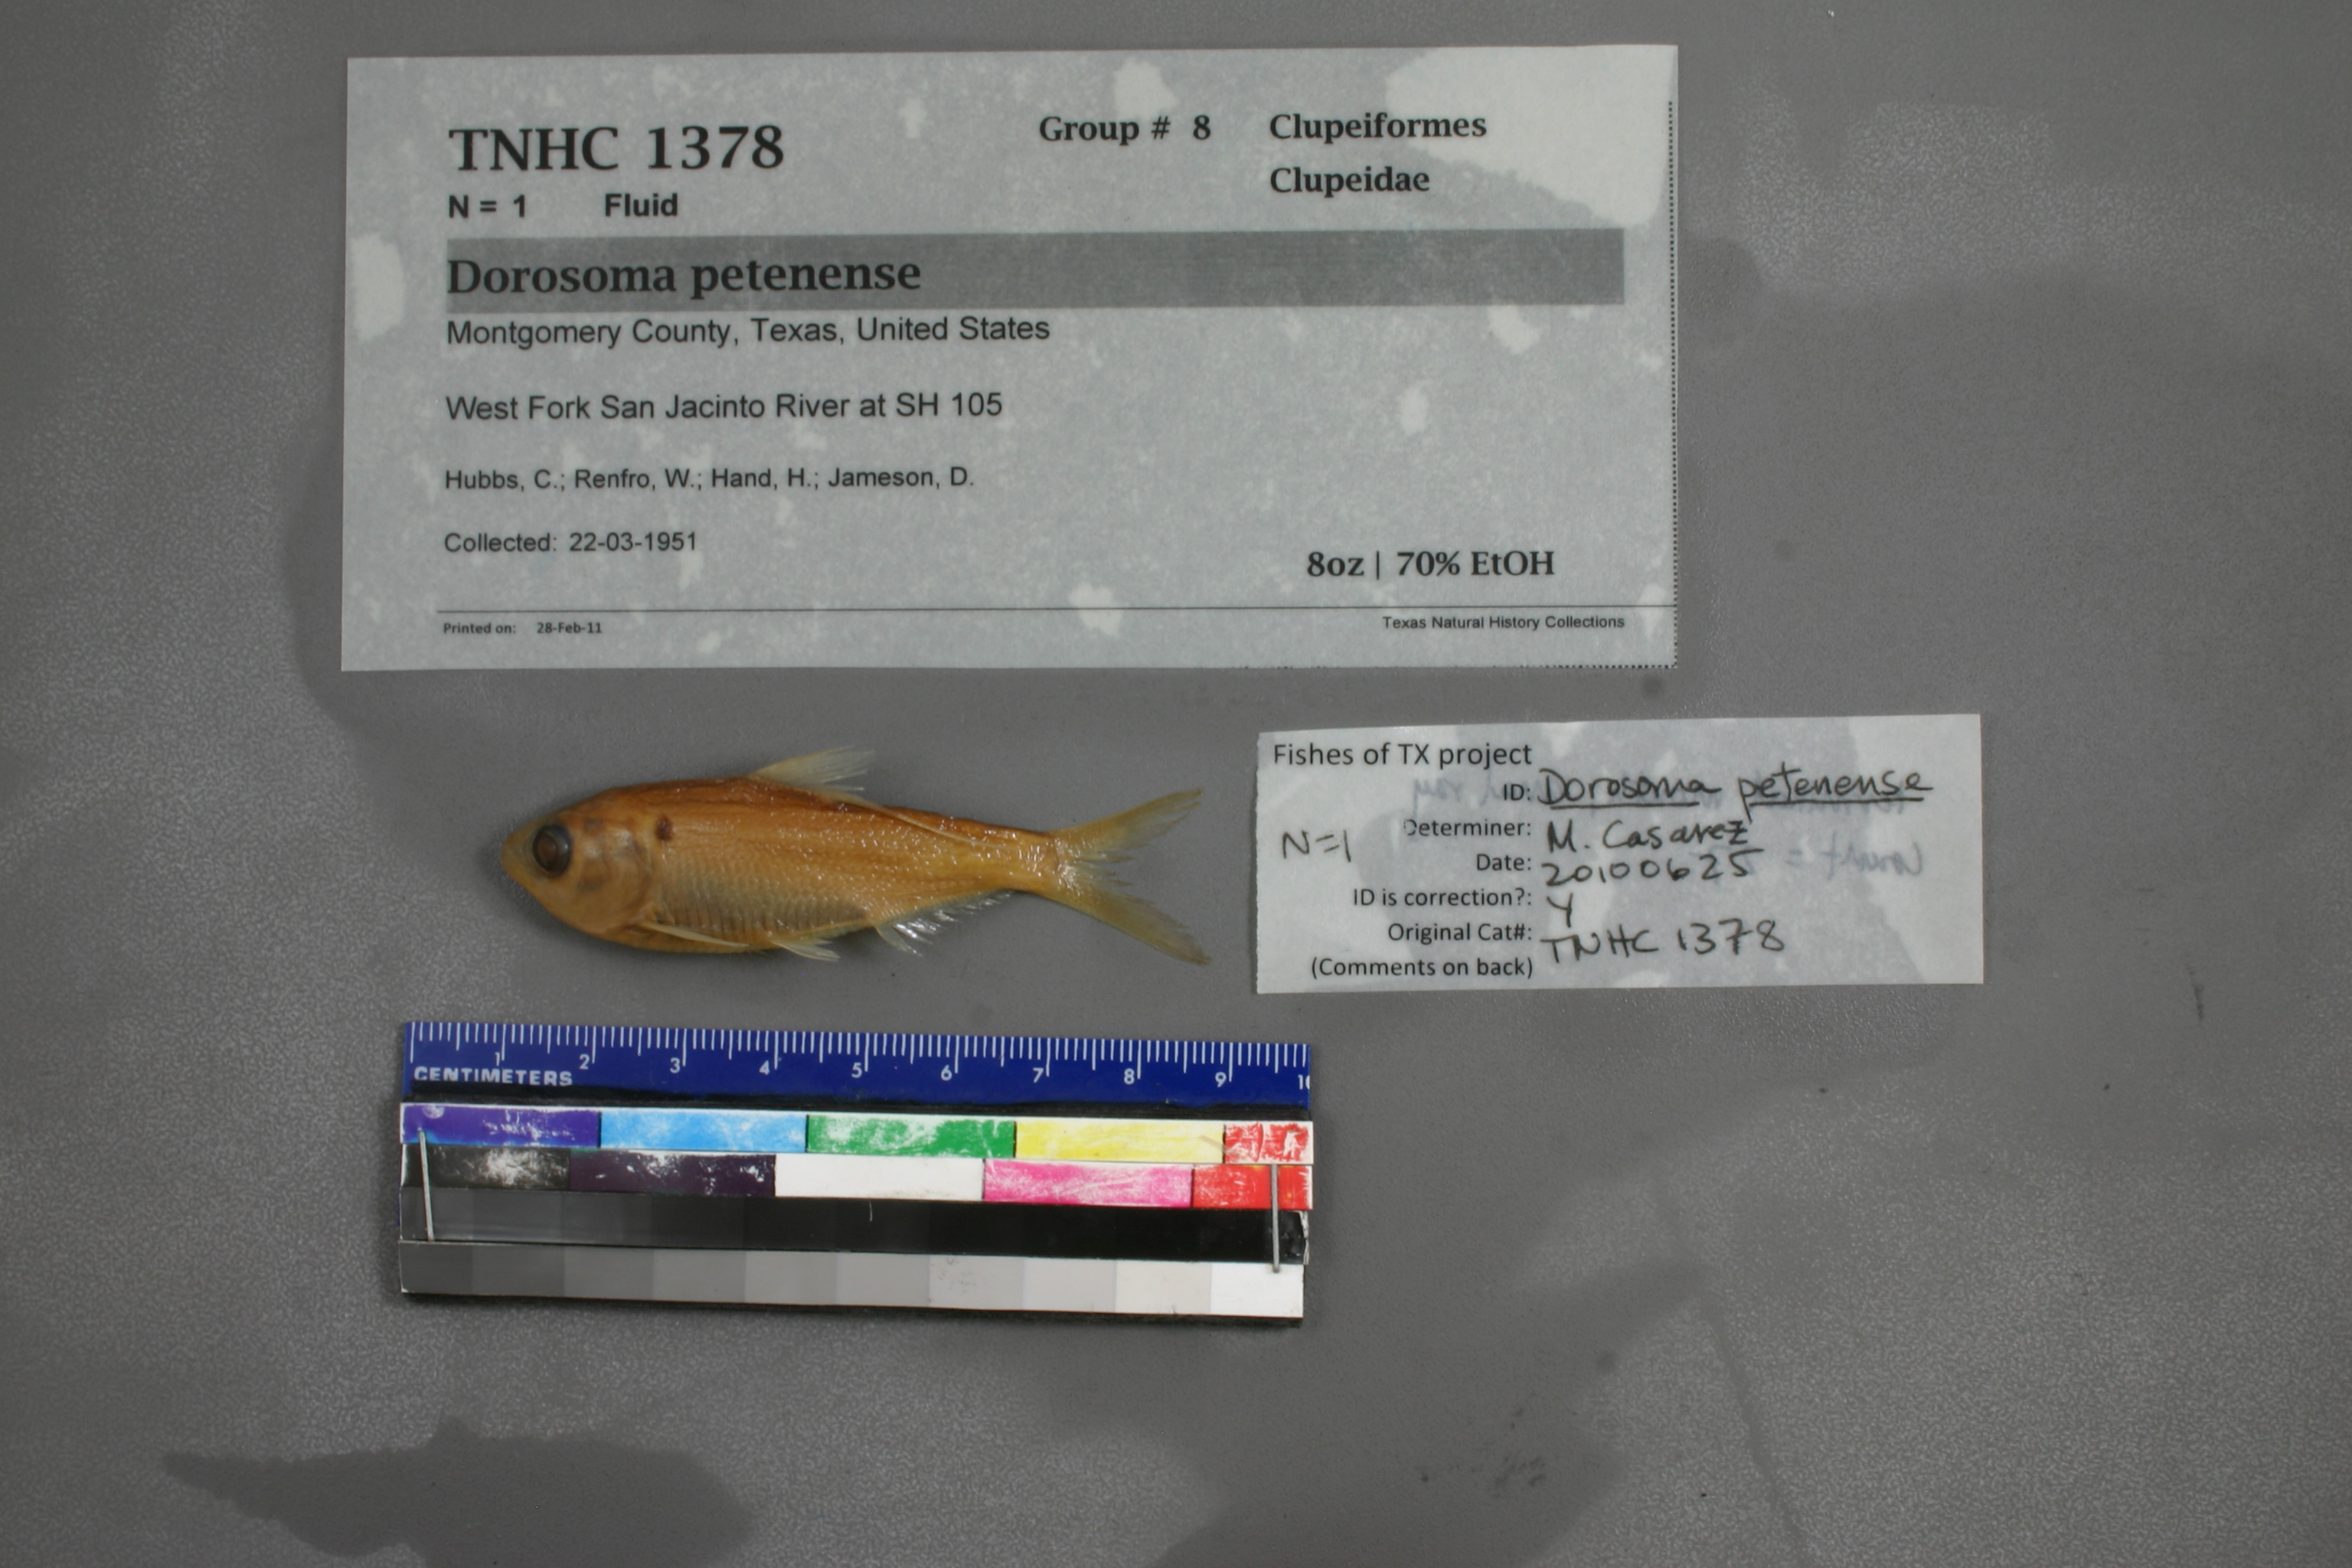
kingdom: Animalia
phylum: Chordata
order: Clupeiformes
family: Clupeidae
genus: Dorosoma
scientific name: Dorosoma petenense
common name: Threadfin shad
